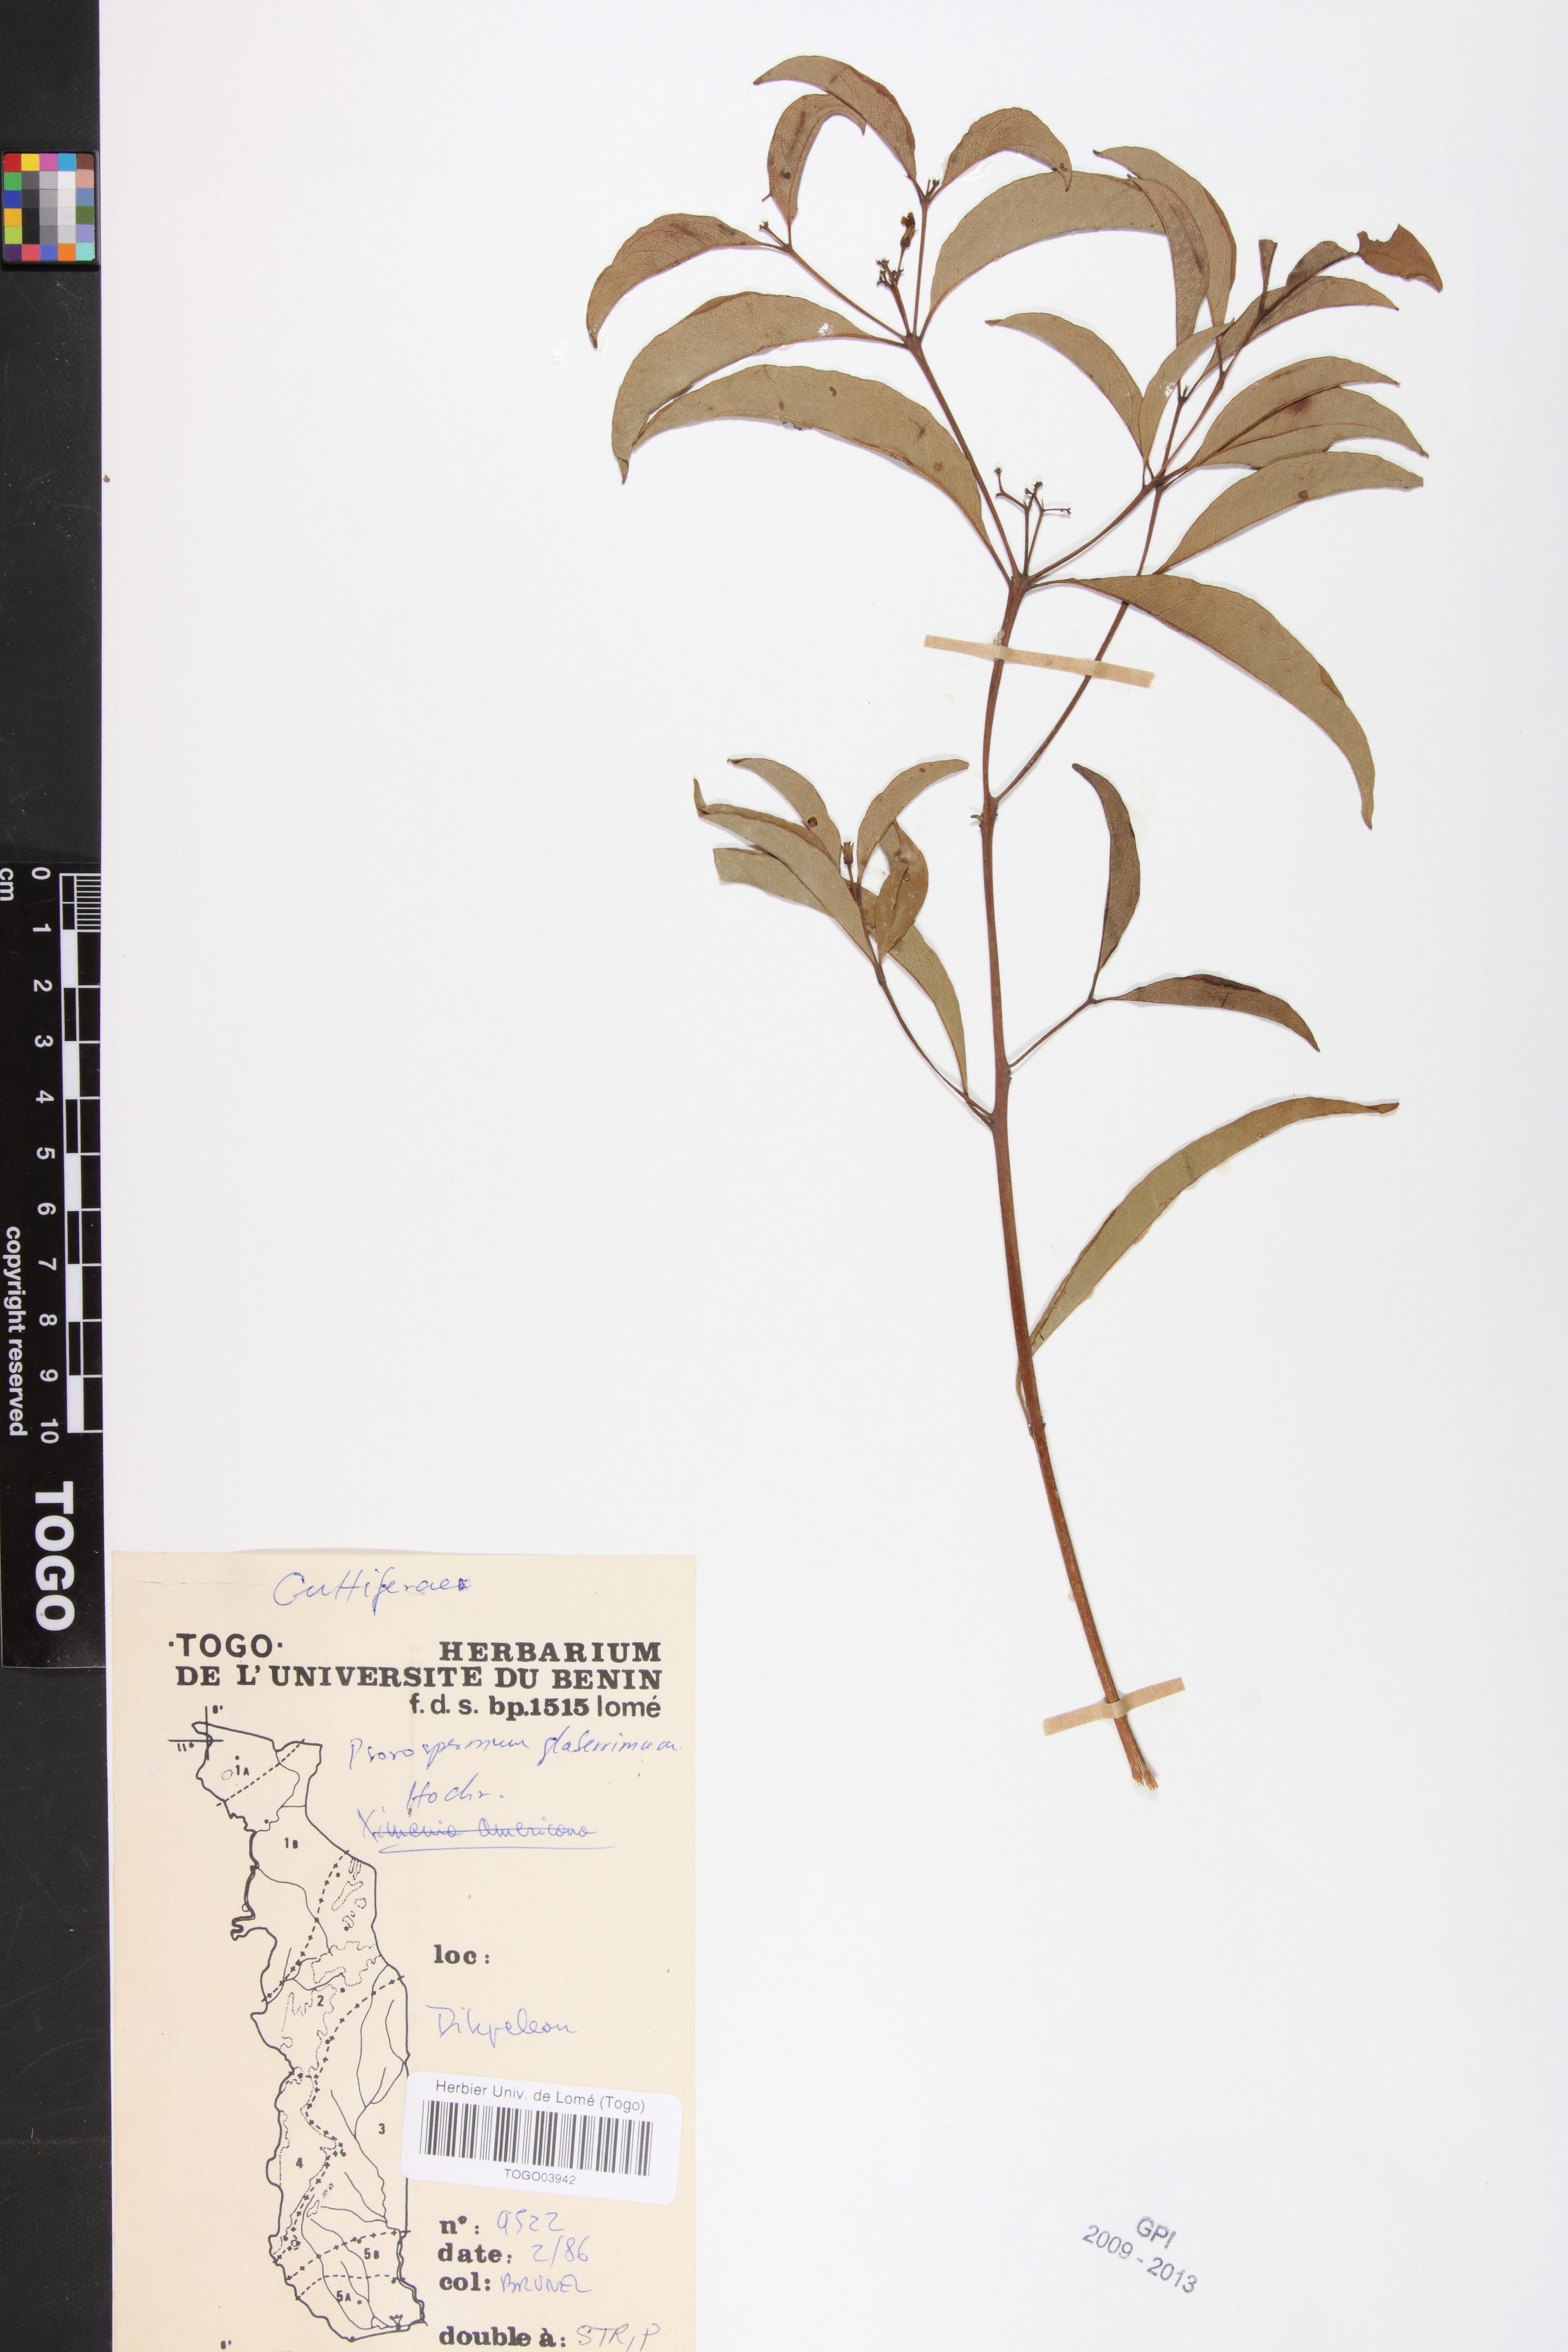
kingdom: Plantae
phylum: Tracheophyta
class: Magnoliopsida
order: Malpighiales
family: Hypericaceae
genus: Psorospermum
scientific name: Psorospermum glaberrimum
